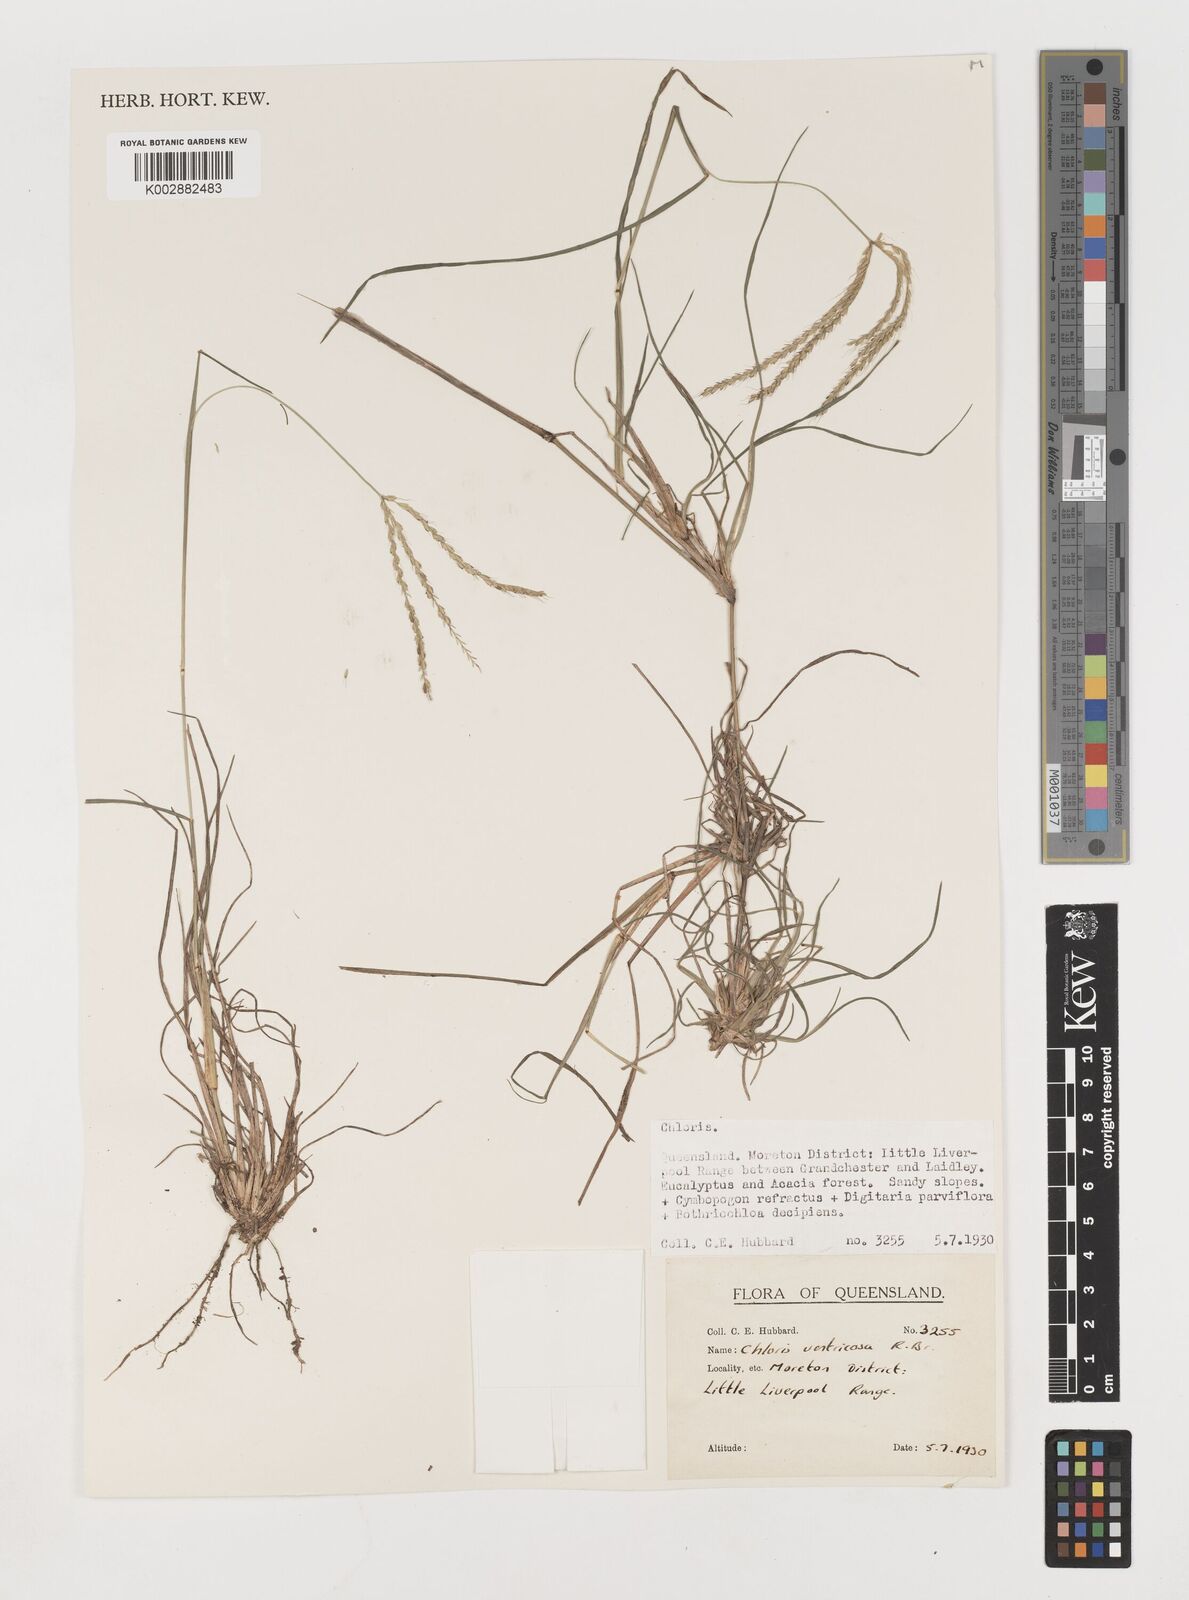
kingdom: Plantae
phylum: Tracheophyta
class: Liliopsida
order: Poales
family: Poaceae
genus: Chloris
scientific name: Chloris ventricosa
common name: Australian windmill grass
